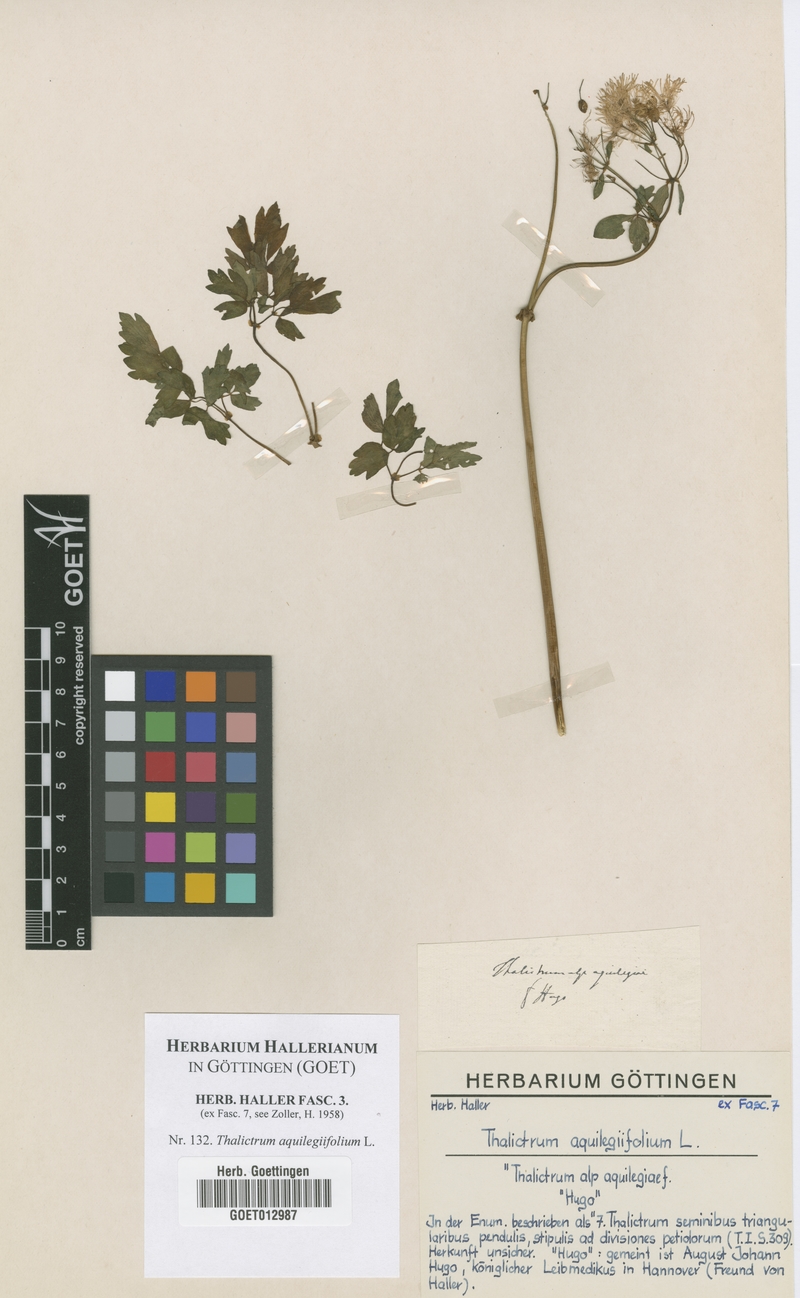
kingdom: Plantae
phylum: Tracheophyta
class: Magnoliopsida
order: Ranunculales
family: Ranunculaceae
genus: Thalictrum
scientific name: Thalictrum aquilegiifolium
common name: French meadow-rue
